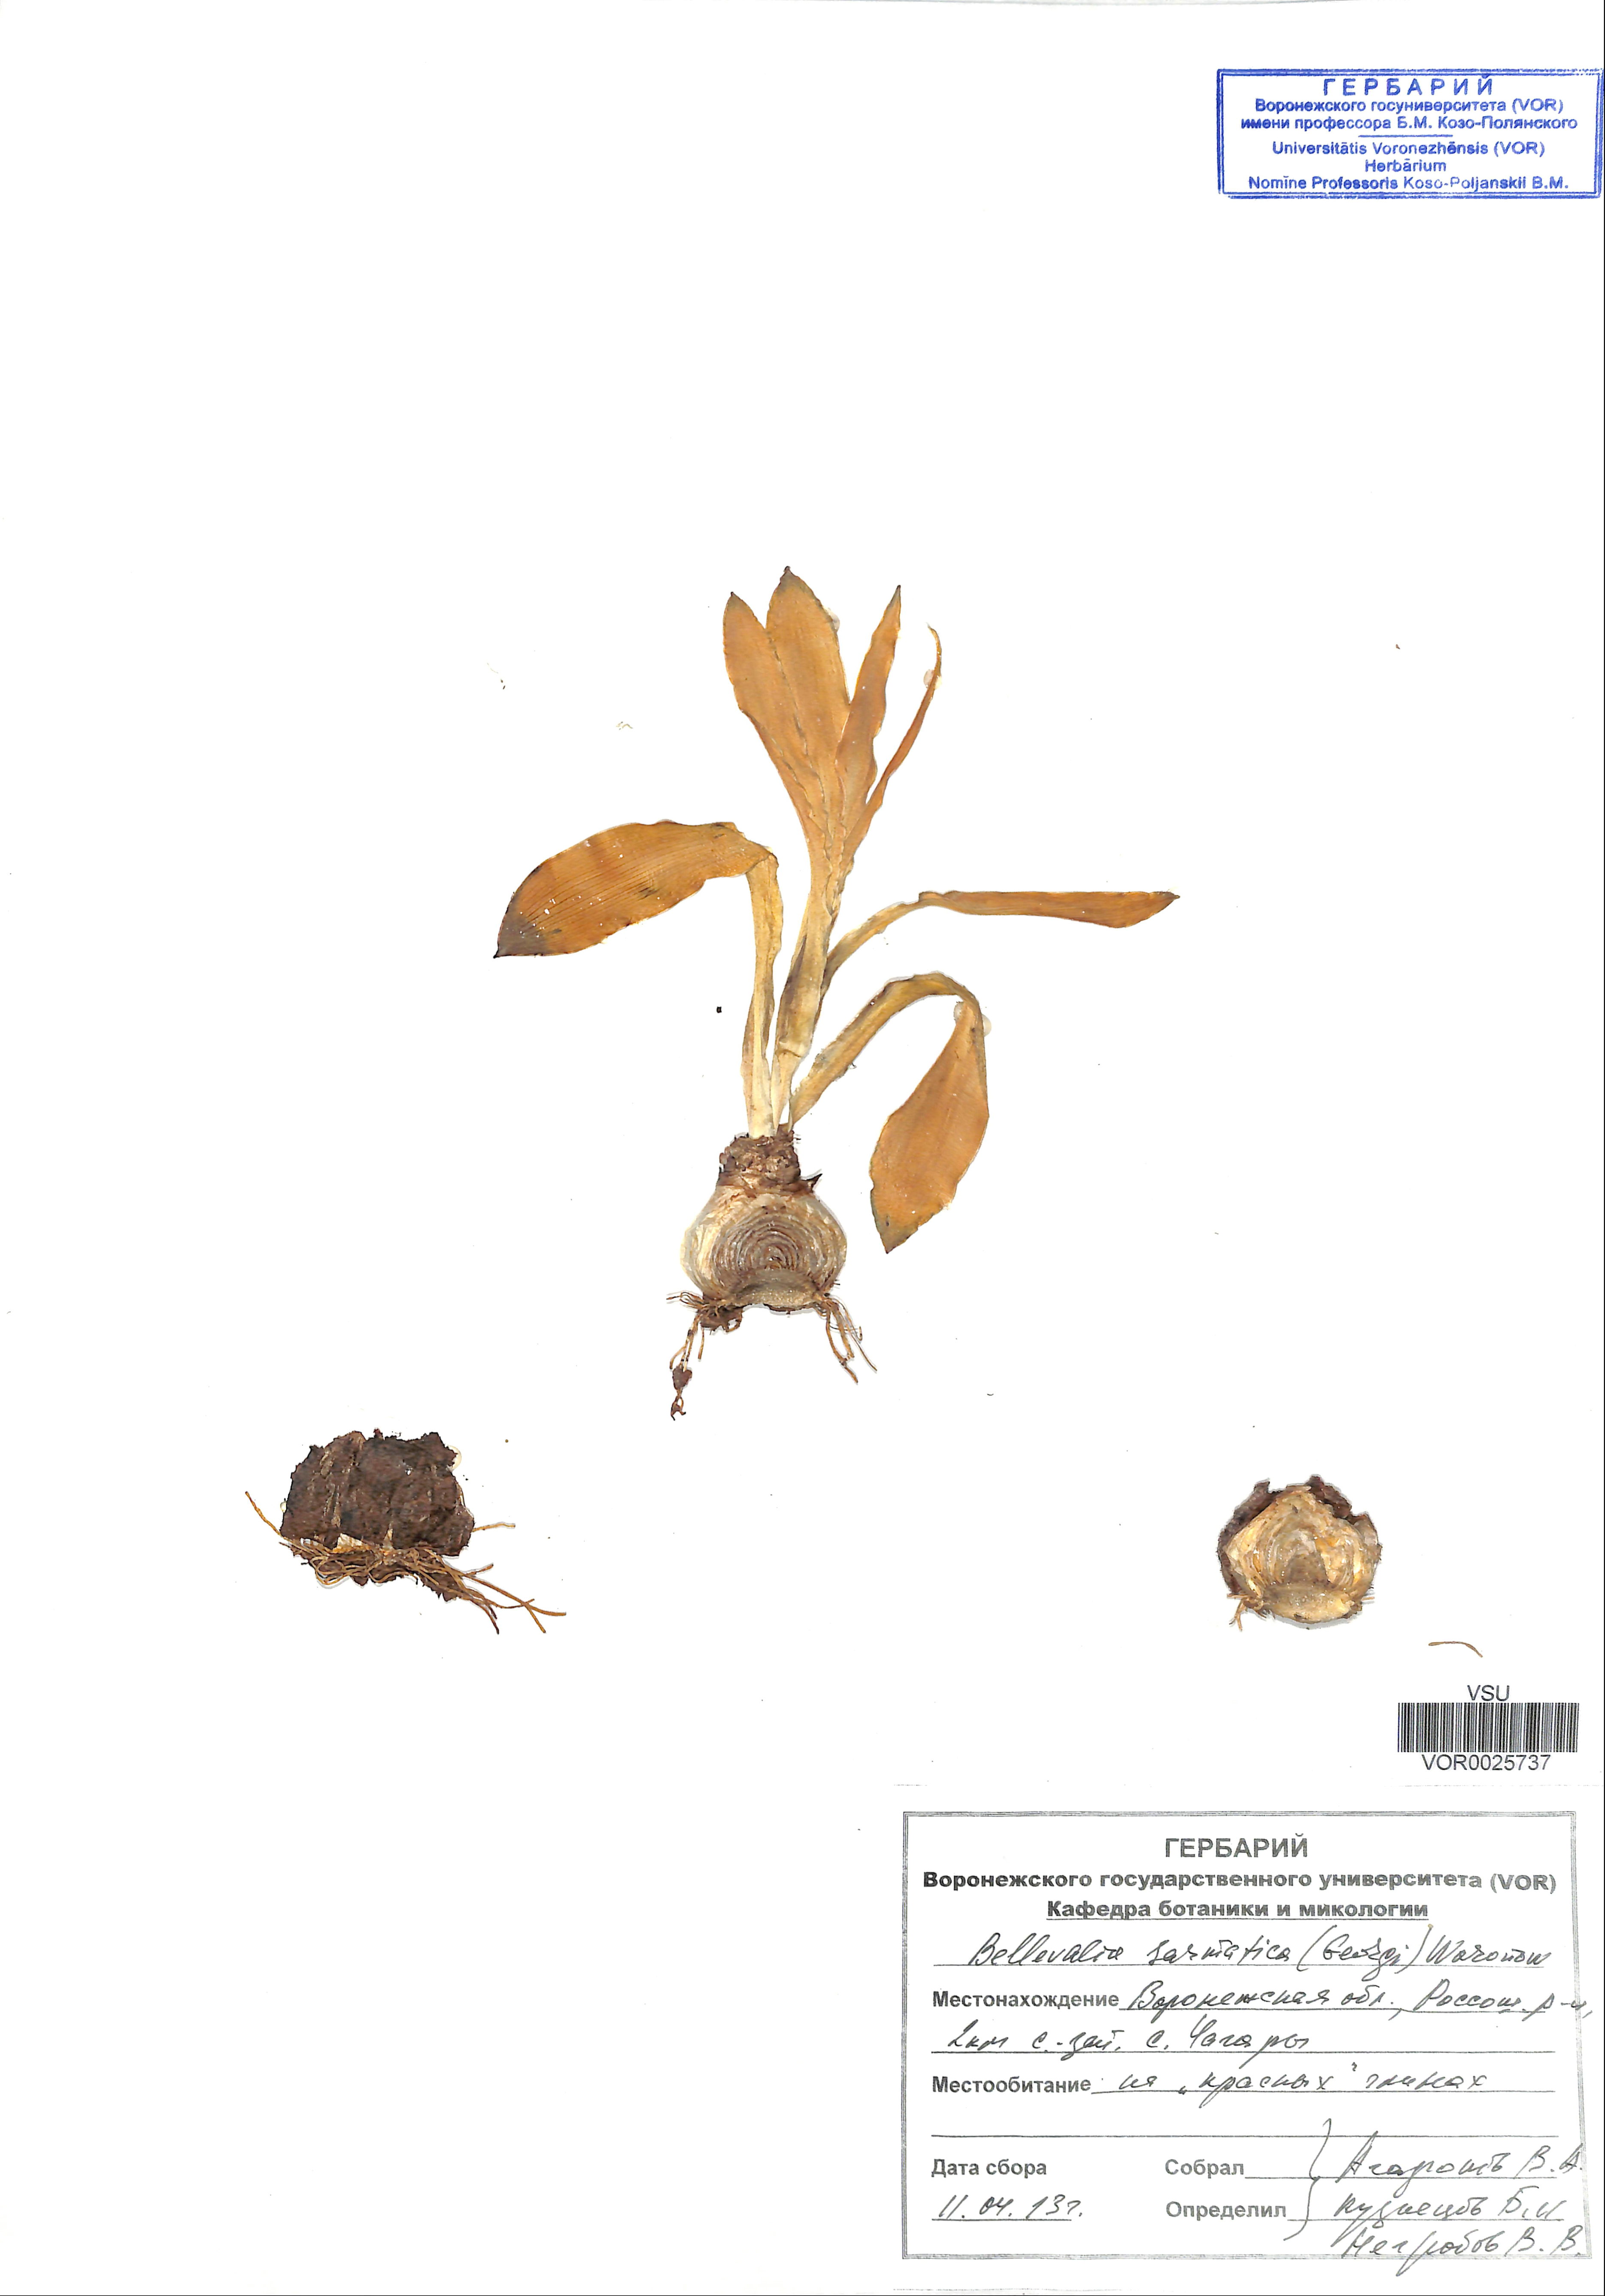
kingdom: Plantae
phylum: Tracheophyta
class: Liliopsida
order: Asparagales
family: Asparagaceae
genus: Bellevalia
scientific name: Bellevalia speciosa
